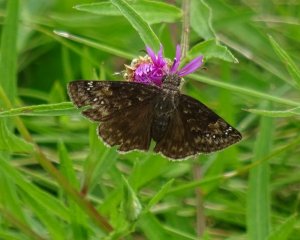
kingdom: Animalia
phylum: Arthropoda
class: Insecta
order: Lepidoptera
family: Hesperiidae
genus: Gesta
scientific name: Gesta
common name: Wild Indigo Duskywing
